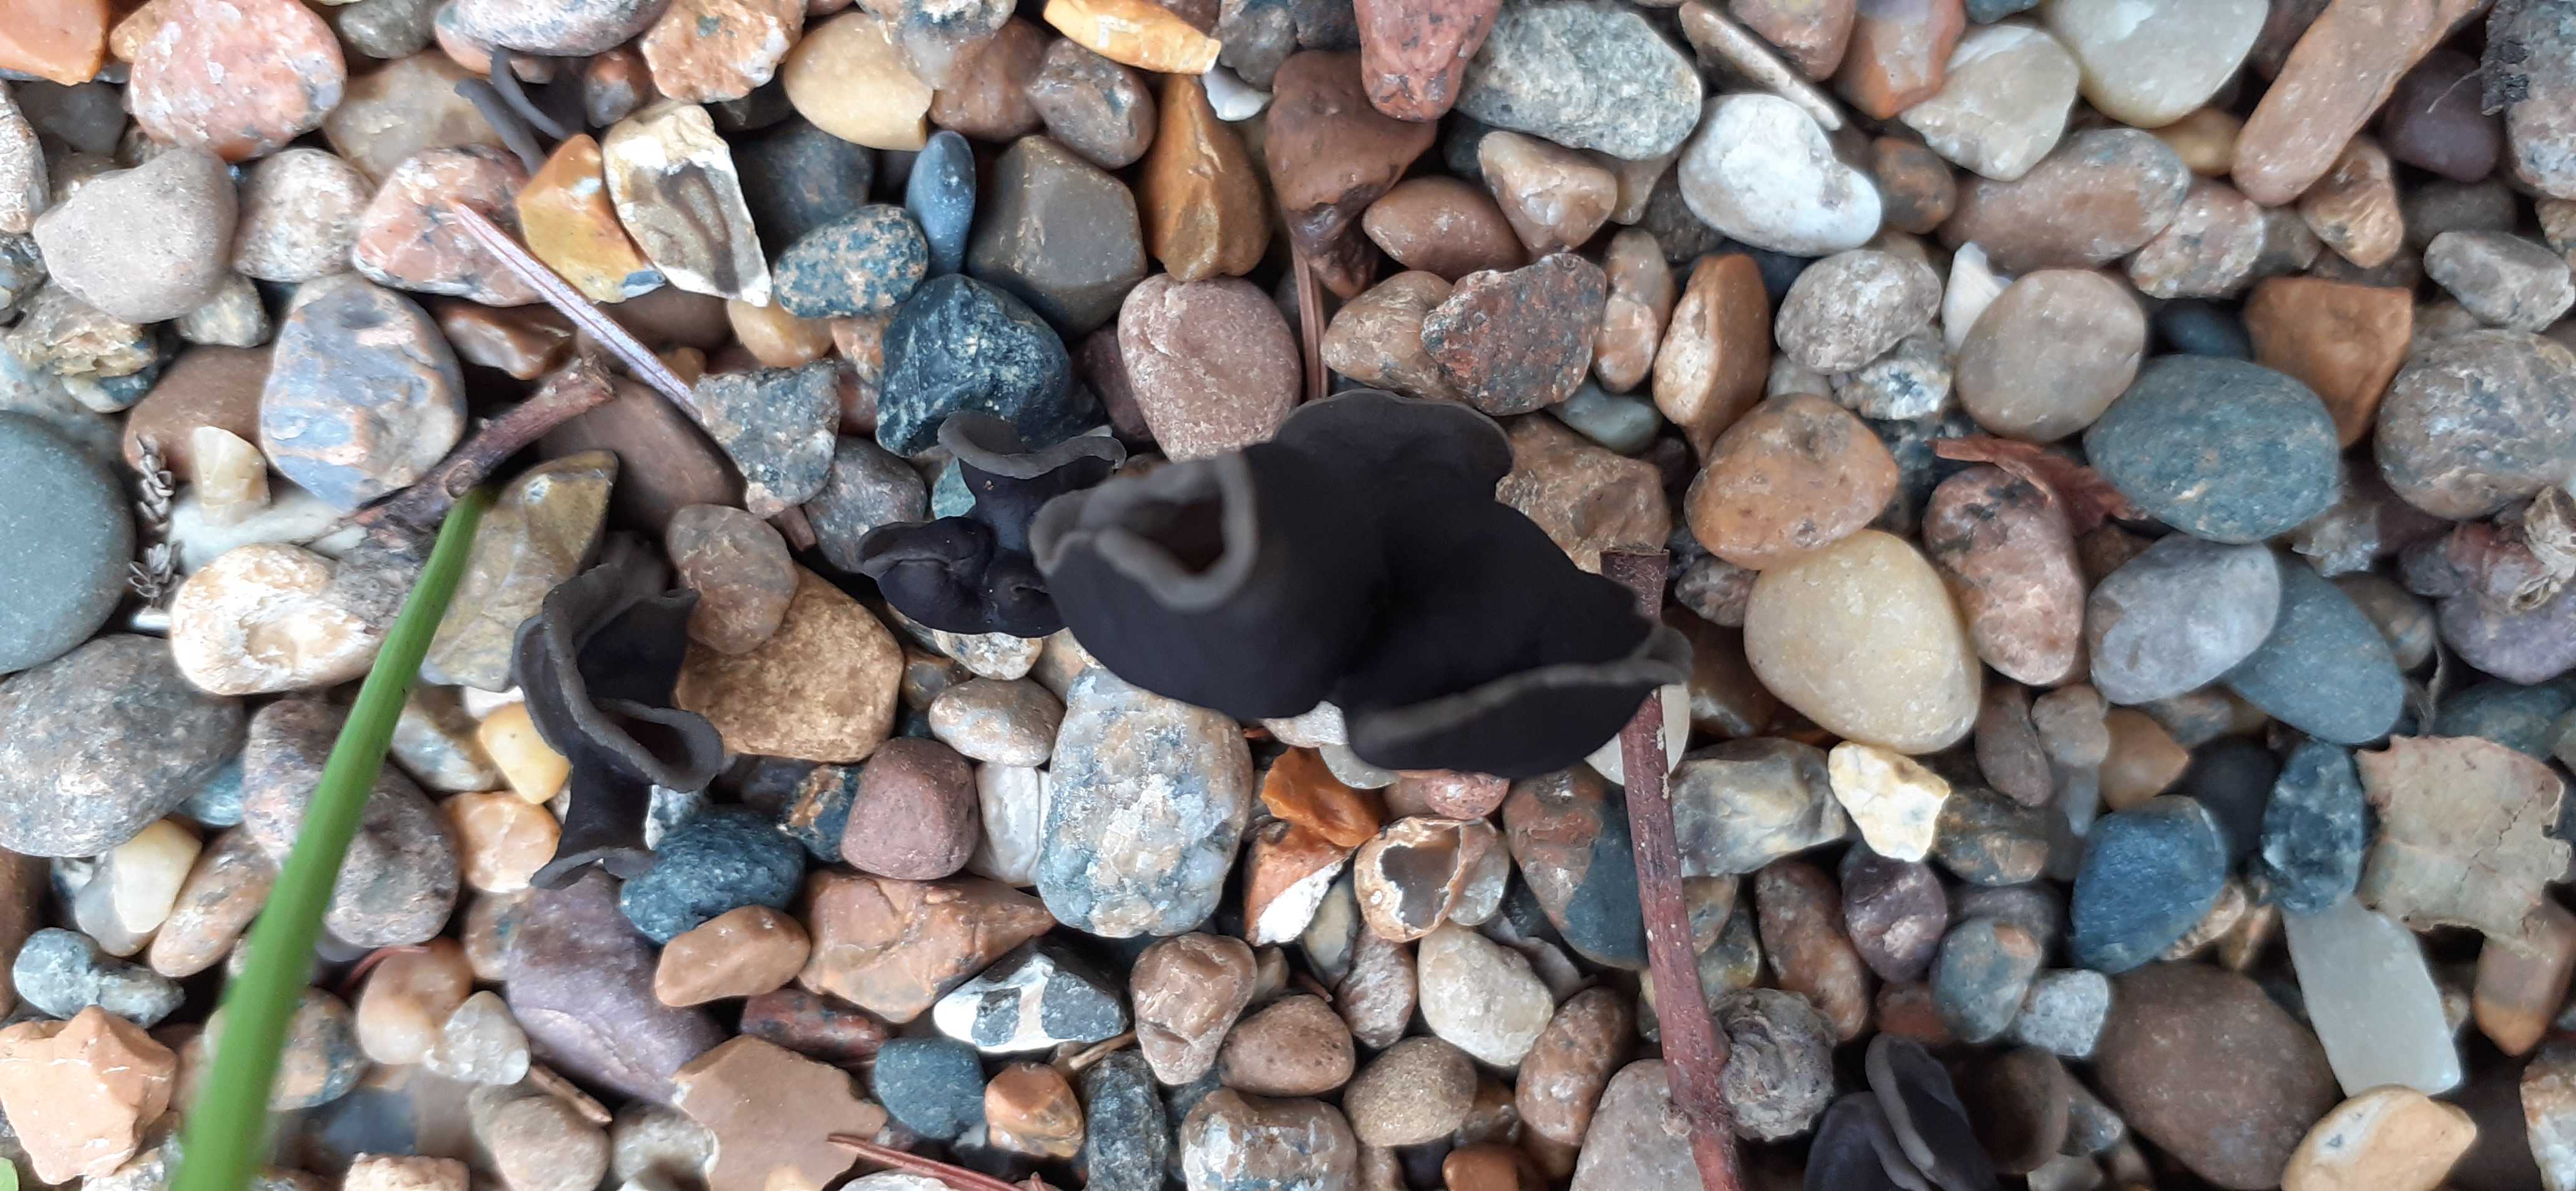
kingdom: Fungi
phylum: Ascomycota
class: Pezizomycetes
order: Pezizales
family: Helvellaceae
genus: Helvella
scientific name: Helvella lacunosa
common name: grubet foldhat
